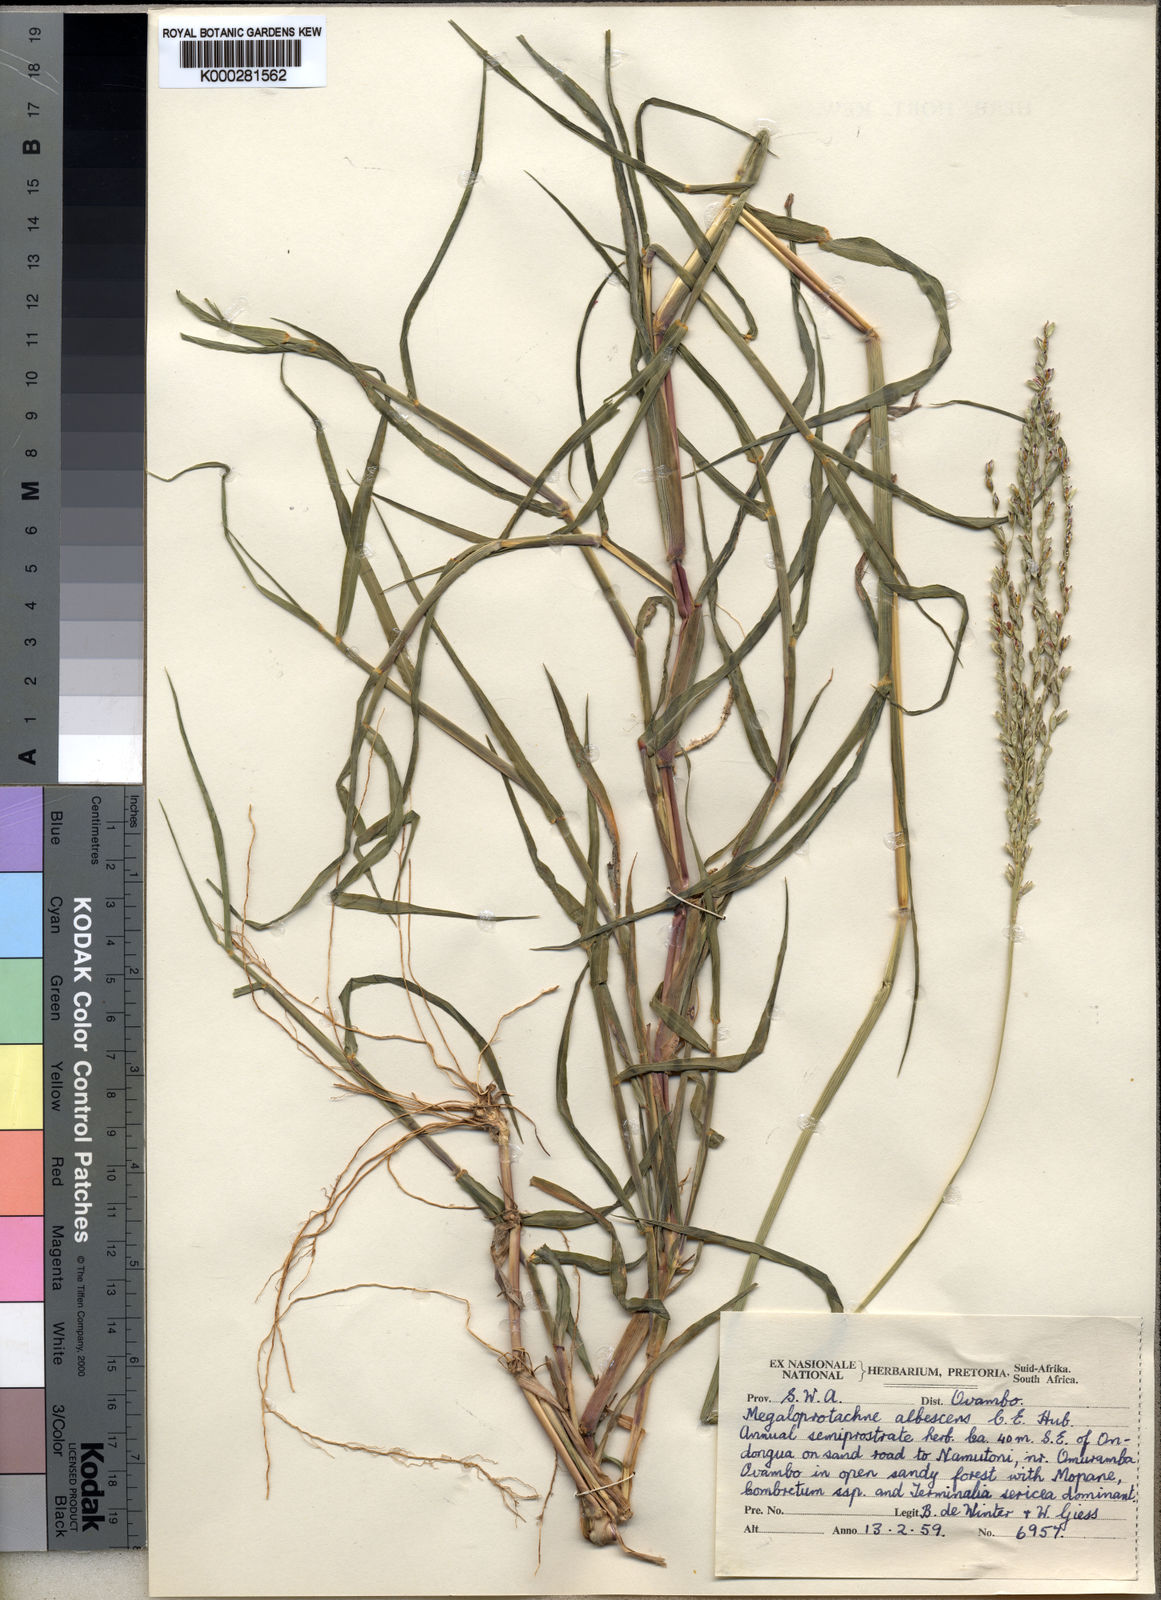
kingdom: Plantae
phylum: Tracheophyta
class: Liliopsida
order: Poales
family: Poaceae
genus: Digitaria
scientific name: Digitaria albescens
